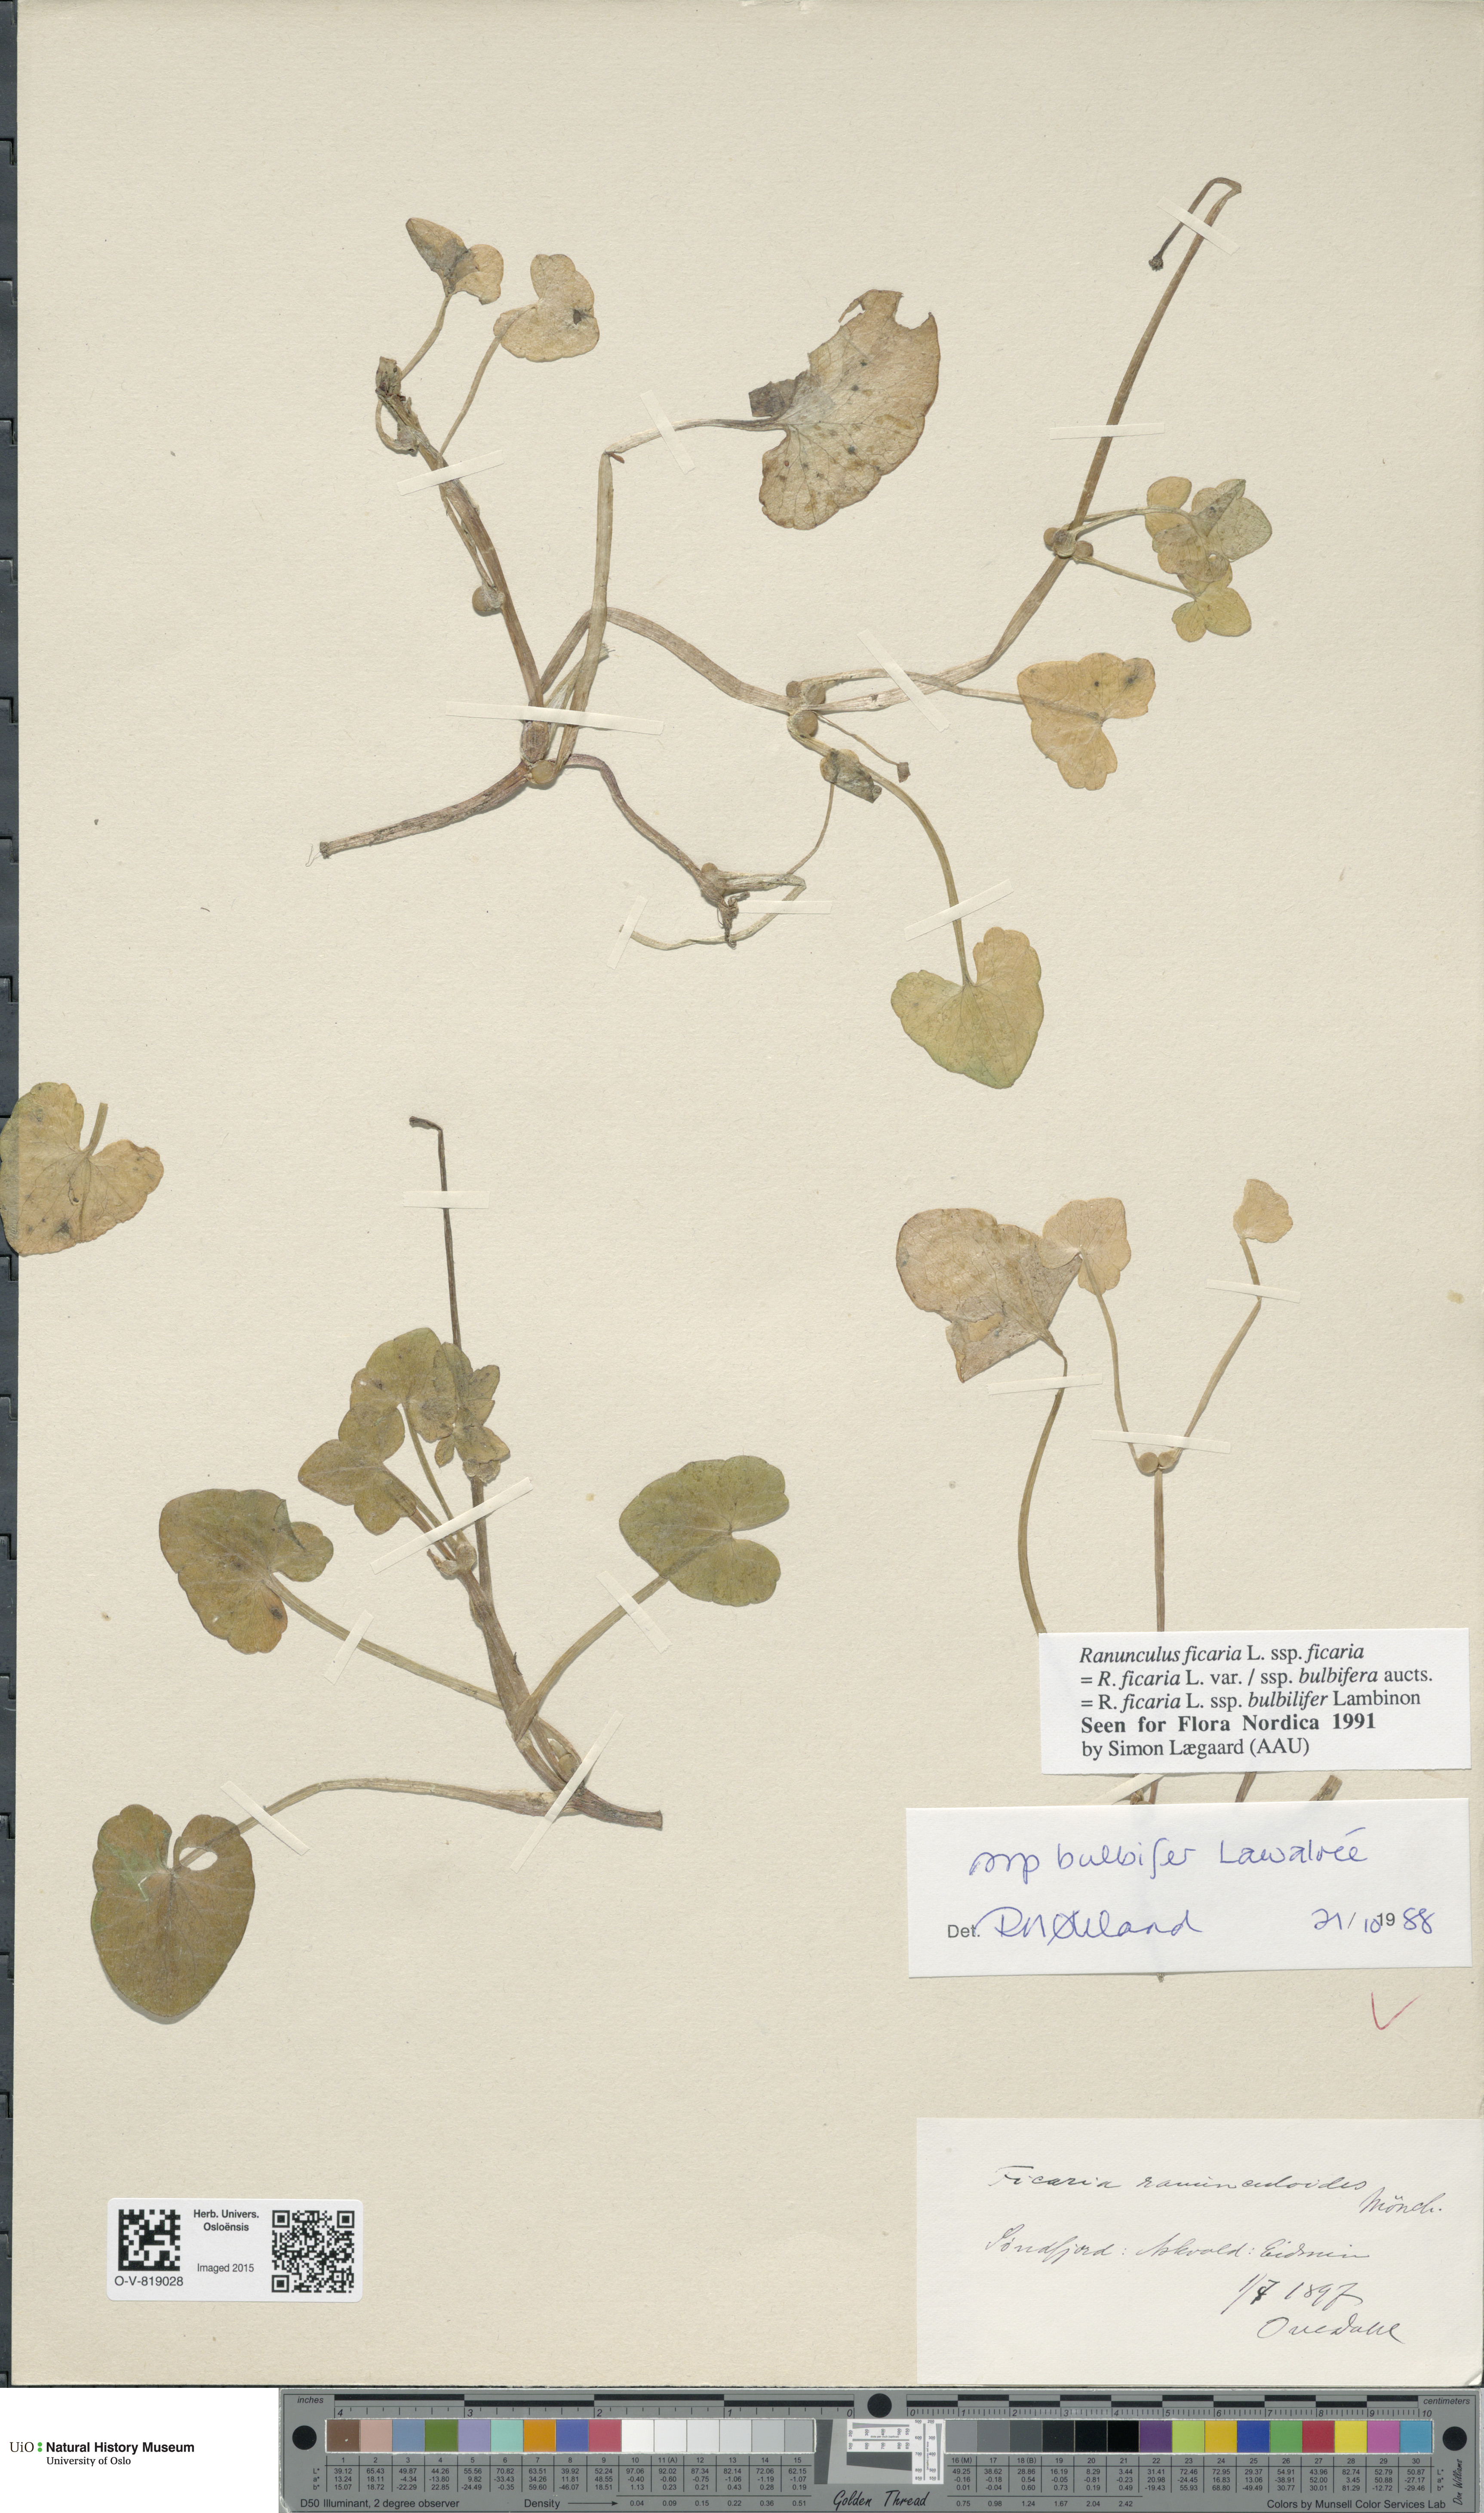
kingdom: Plantae
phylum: Tracheophyta
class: Magnoliopsida
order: Ranunculales
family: Ranunculaceae
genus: Ficaria
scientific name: Ficaria verna
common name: Lesser celandine
